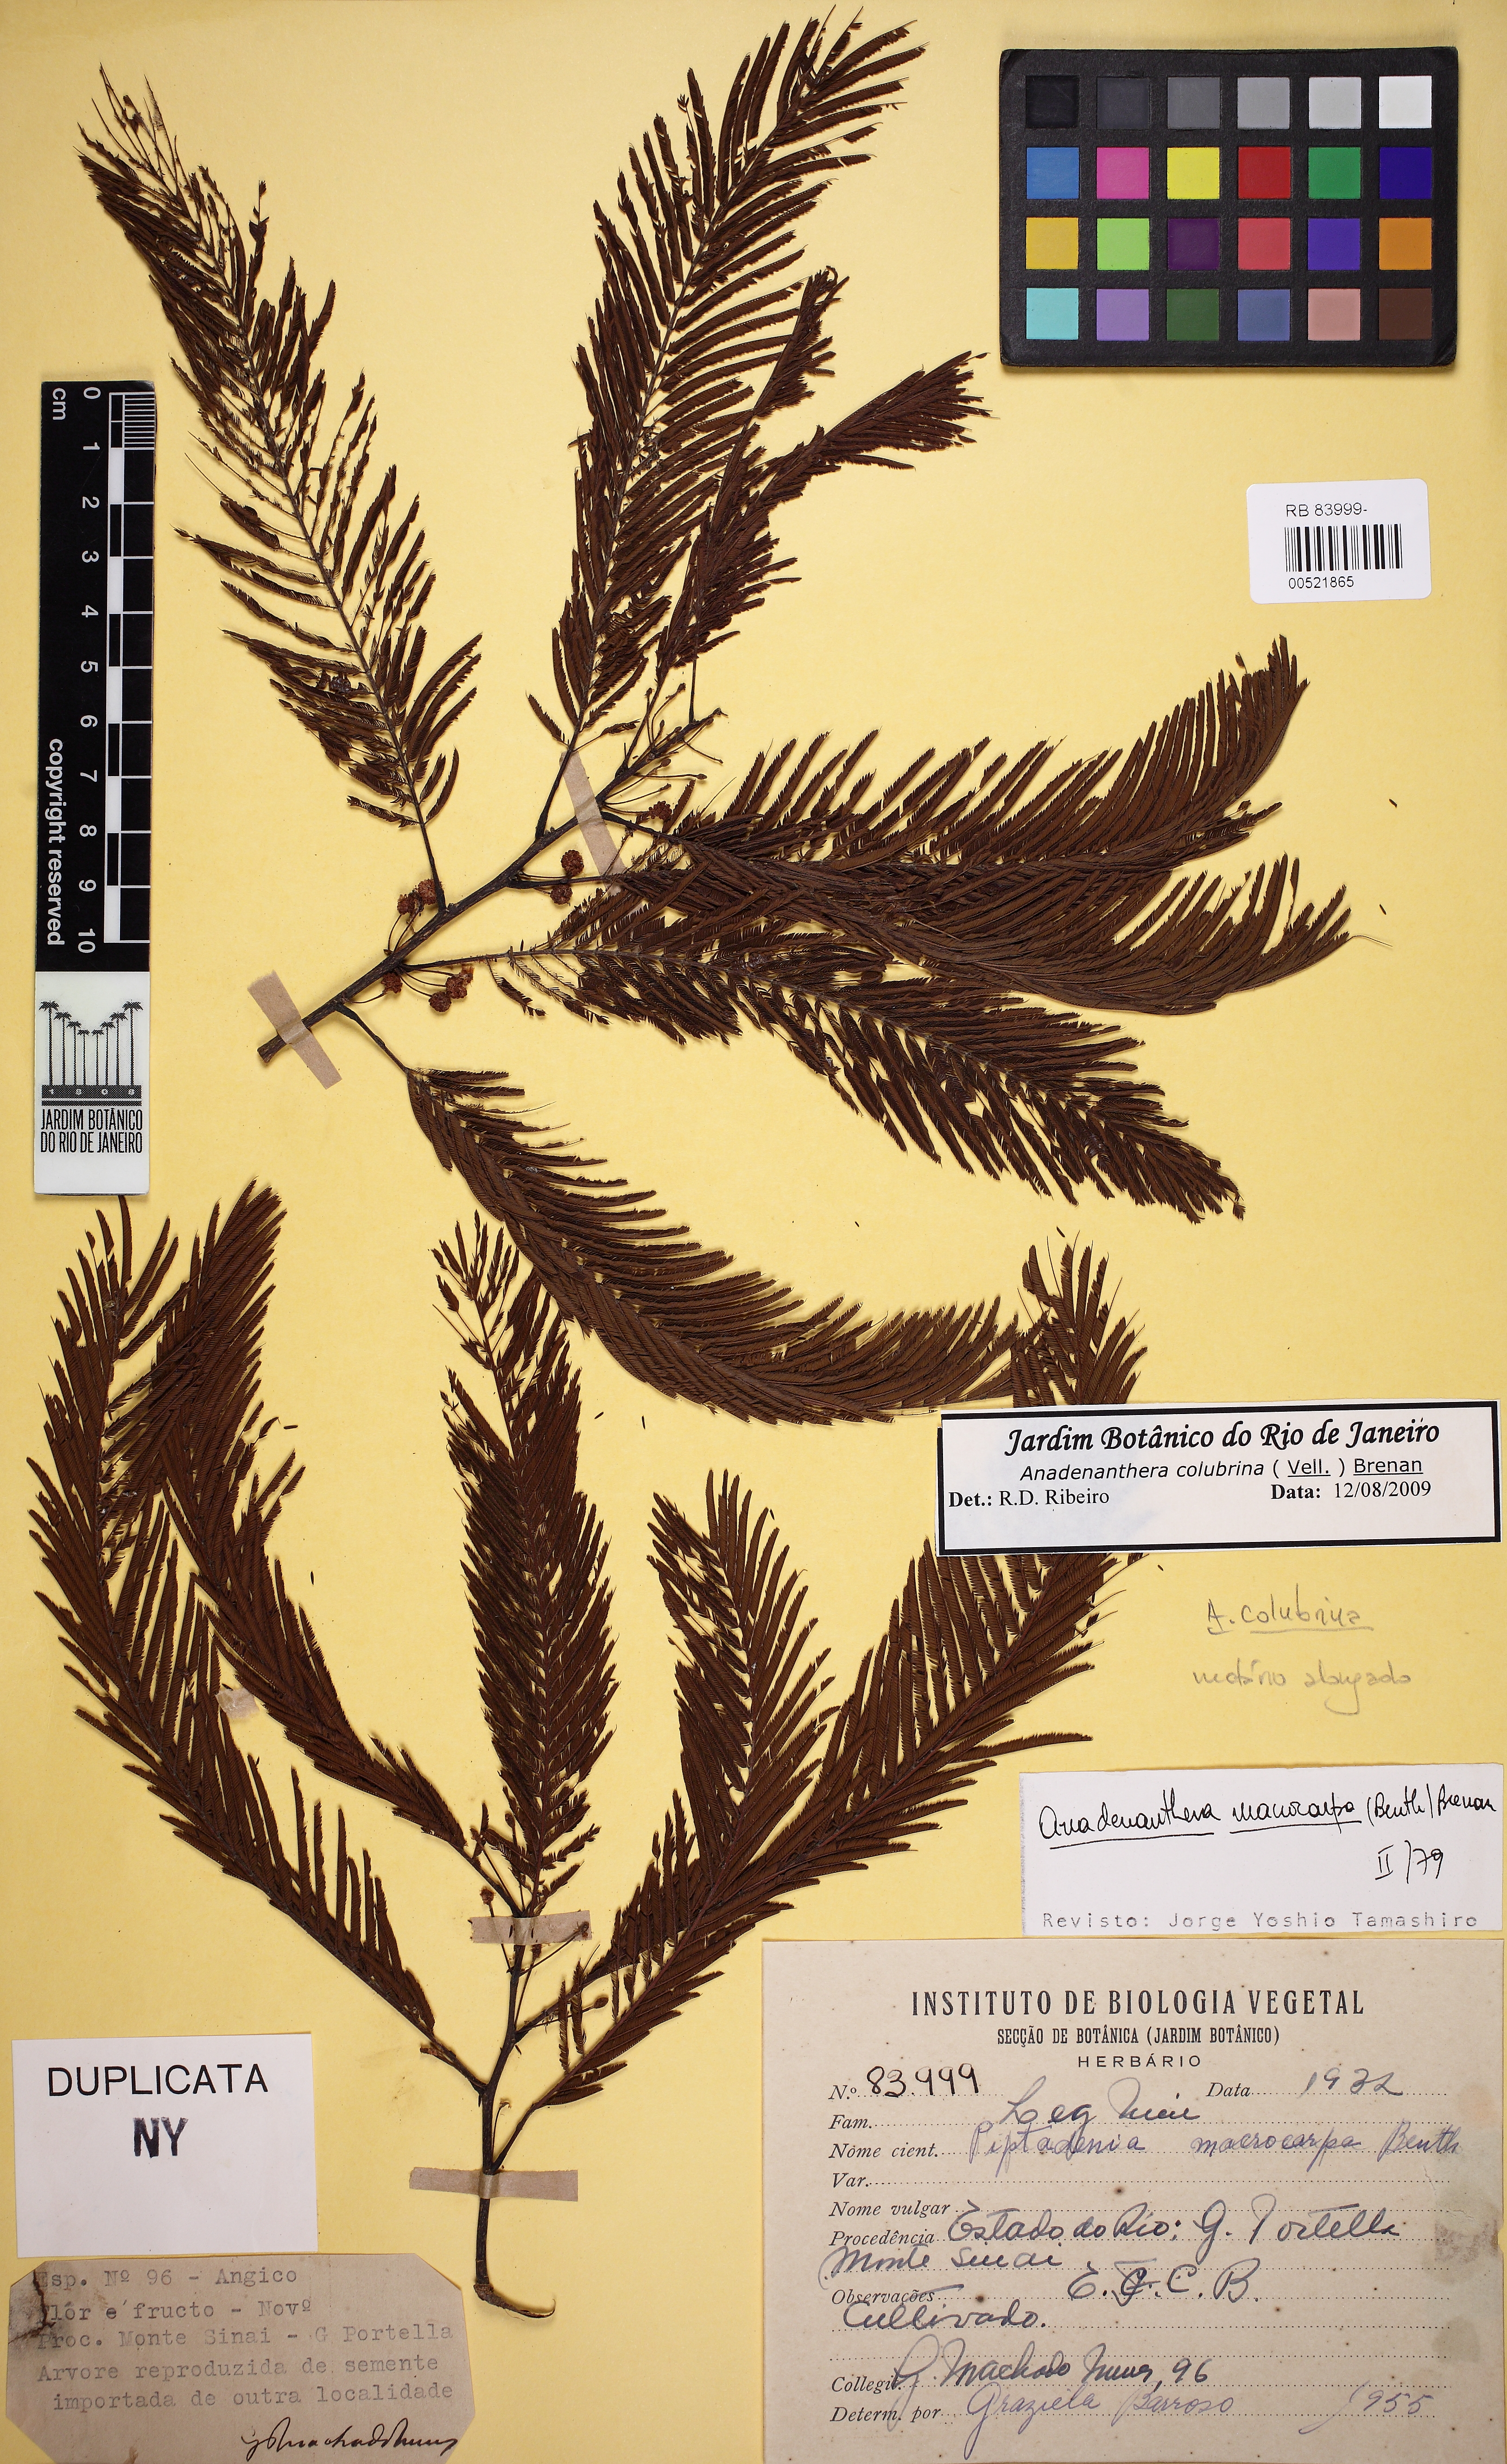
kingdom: Plantae
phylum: Tracheophyta
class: Magnoliopsida
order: Fabales
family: Fabaceae
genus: Anadenanthera
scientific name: Anadenanthera colubrina
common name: Curupay
